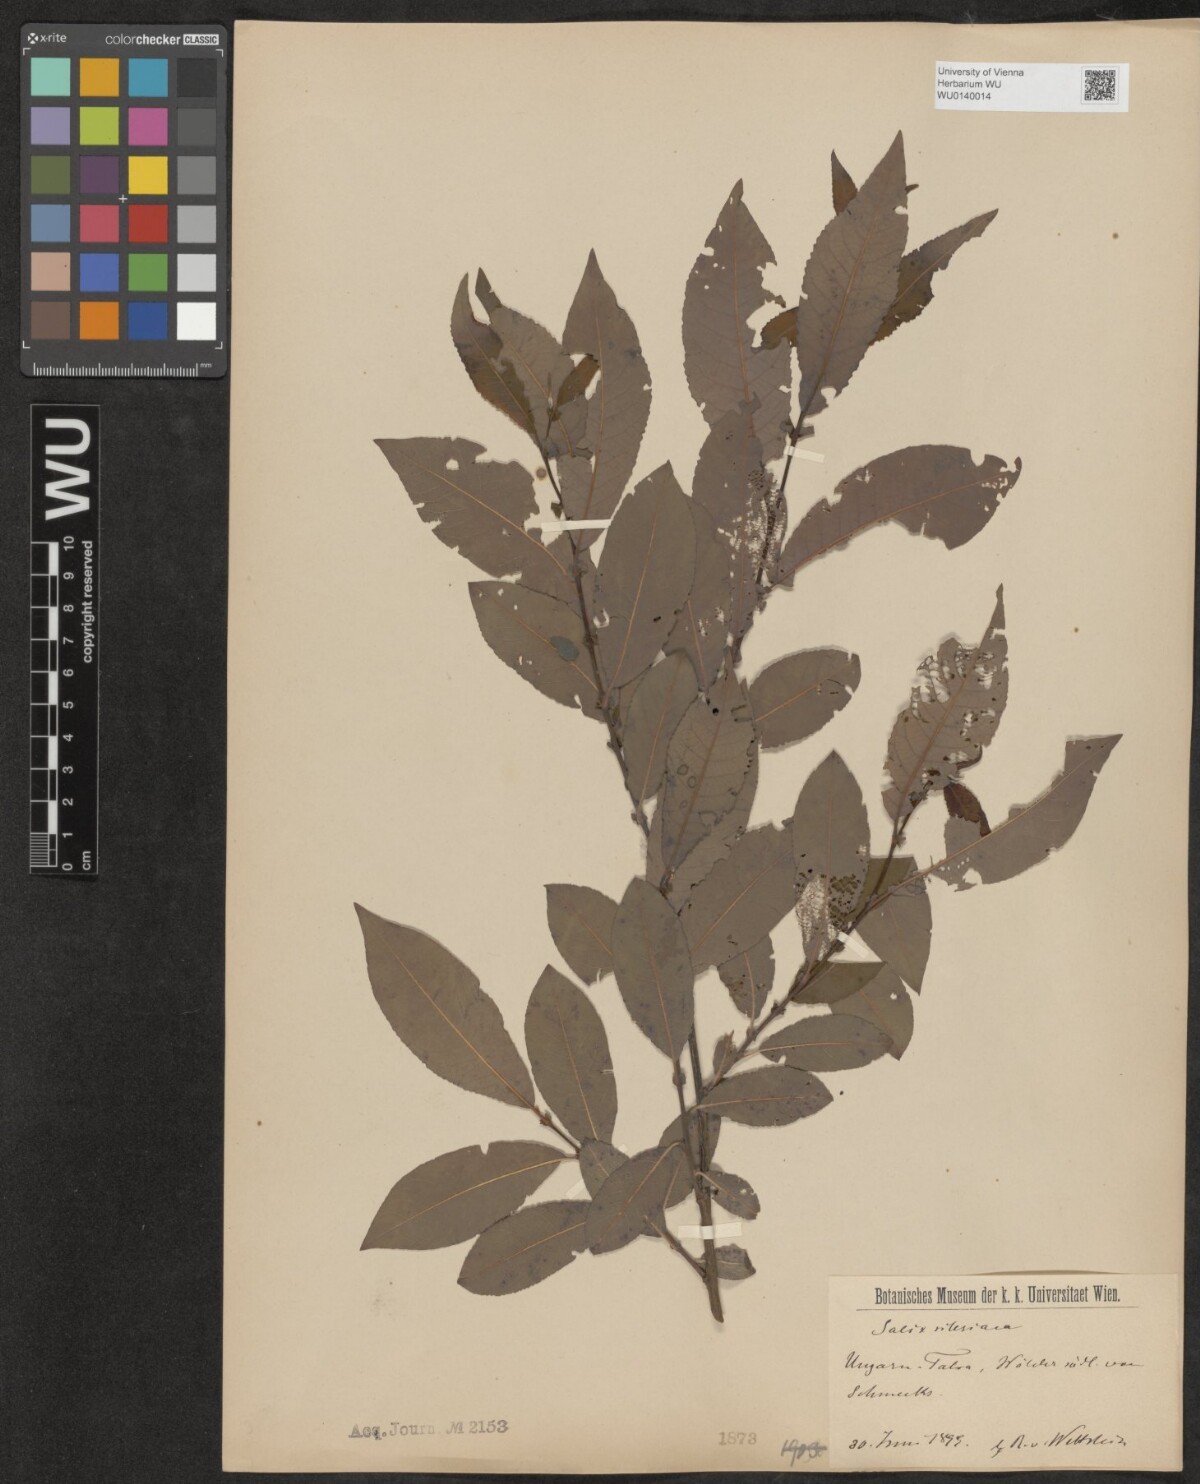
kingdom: Plantae
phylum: Tracheophyta
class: Magnoliopsida
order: Malpighiales
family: Salicaceae
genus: Salix
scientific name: Salix silesiaca
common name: Silesian willow
